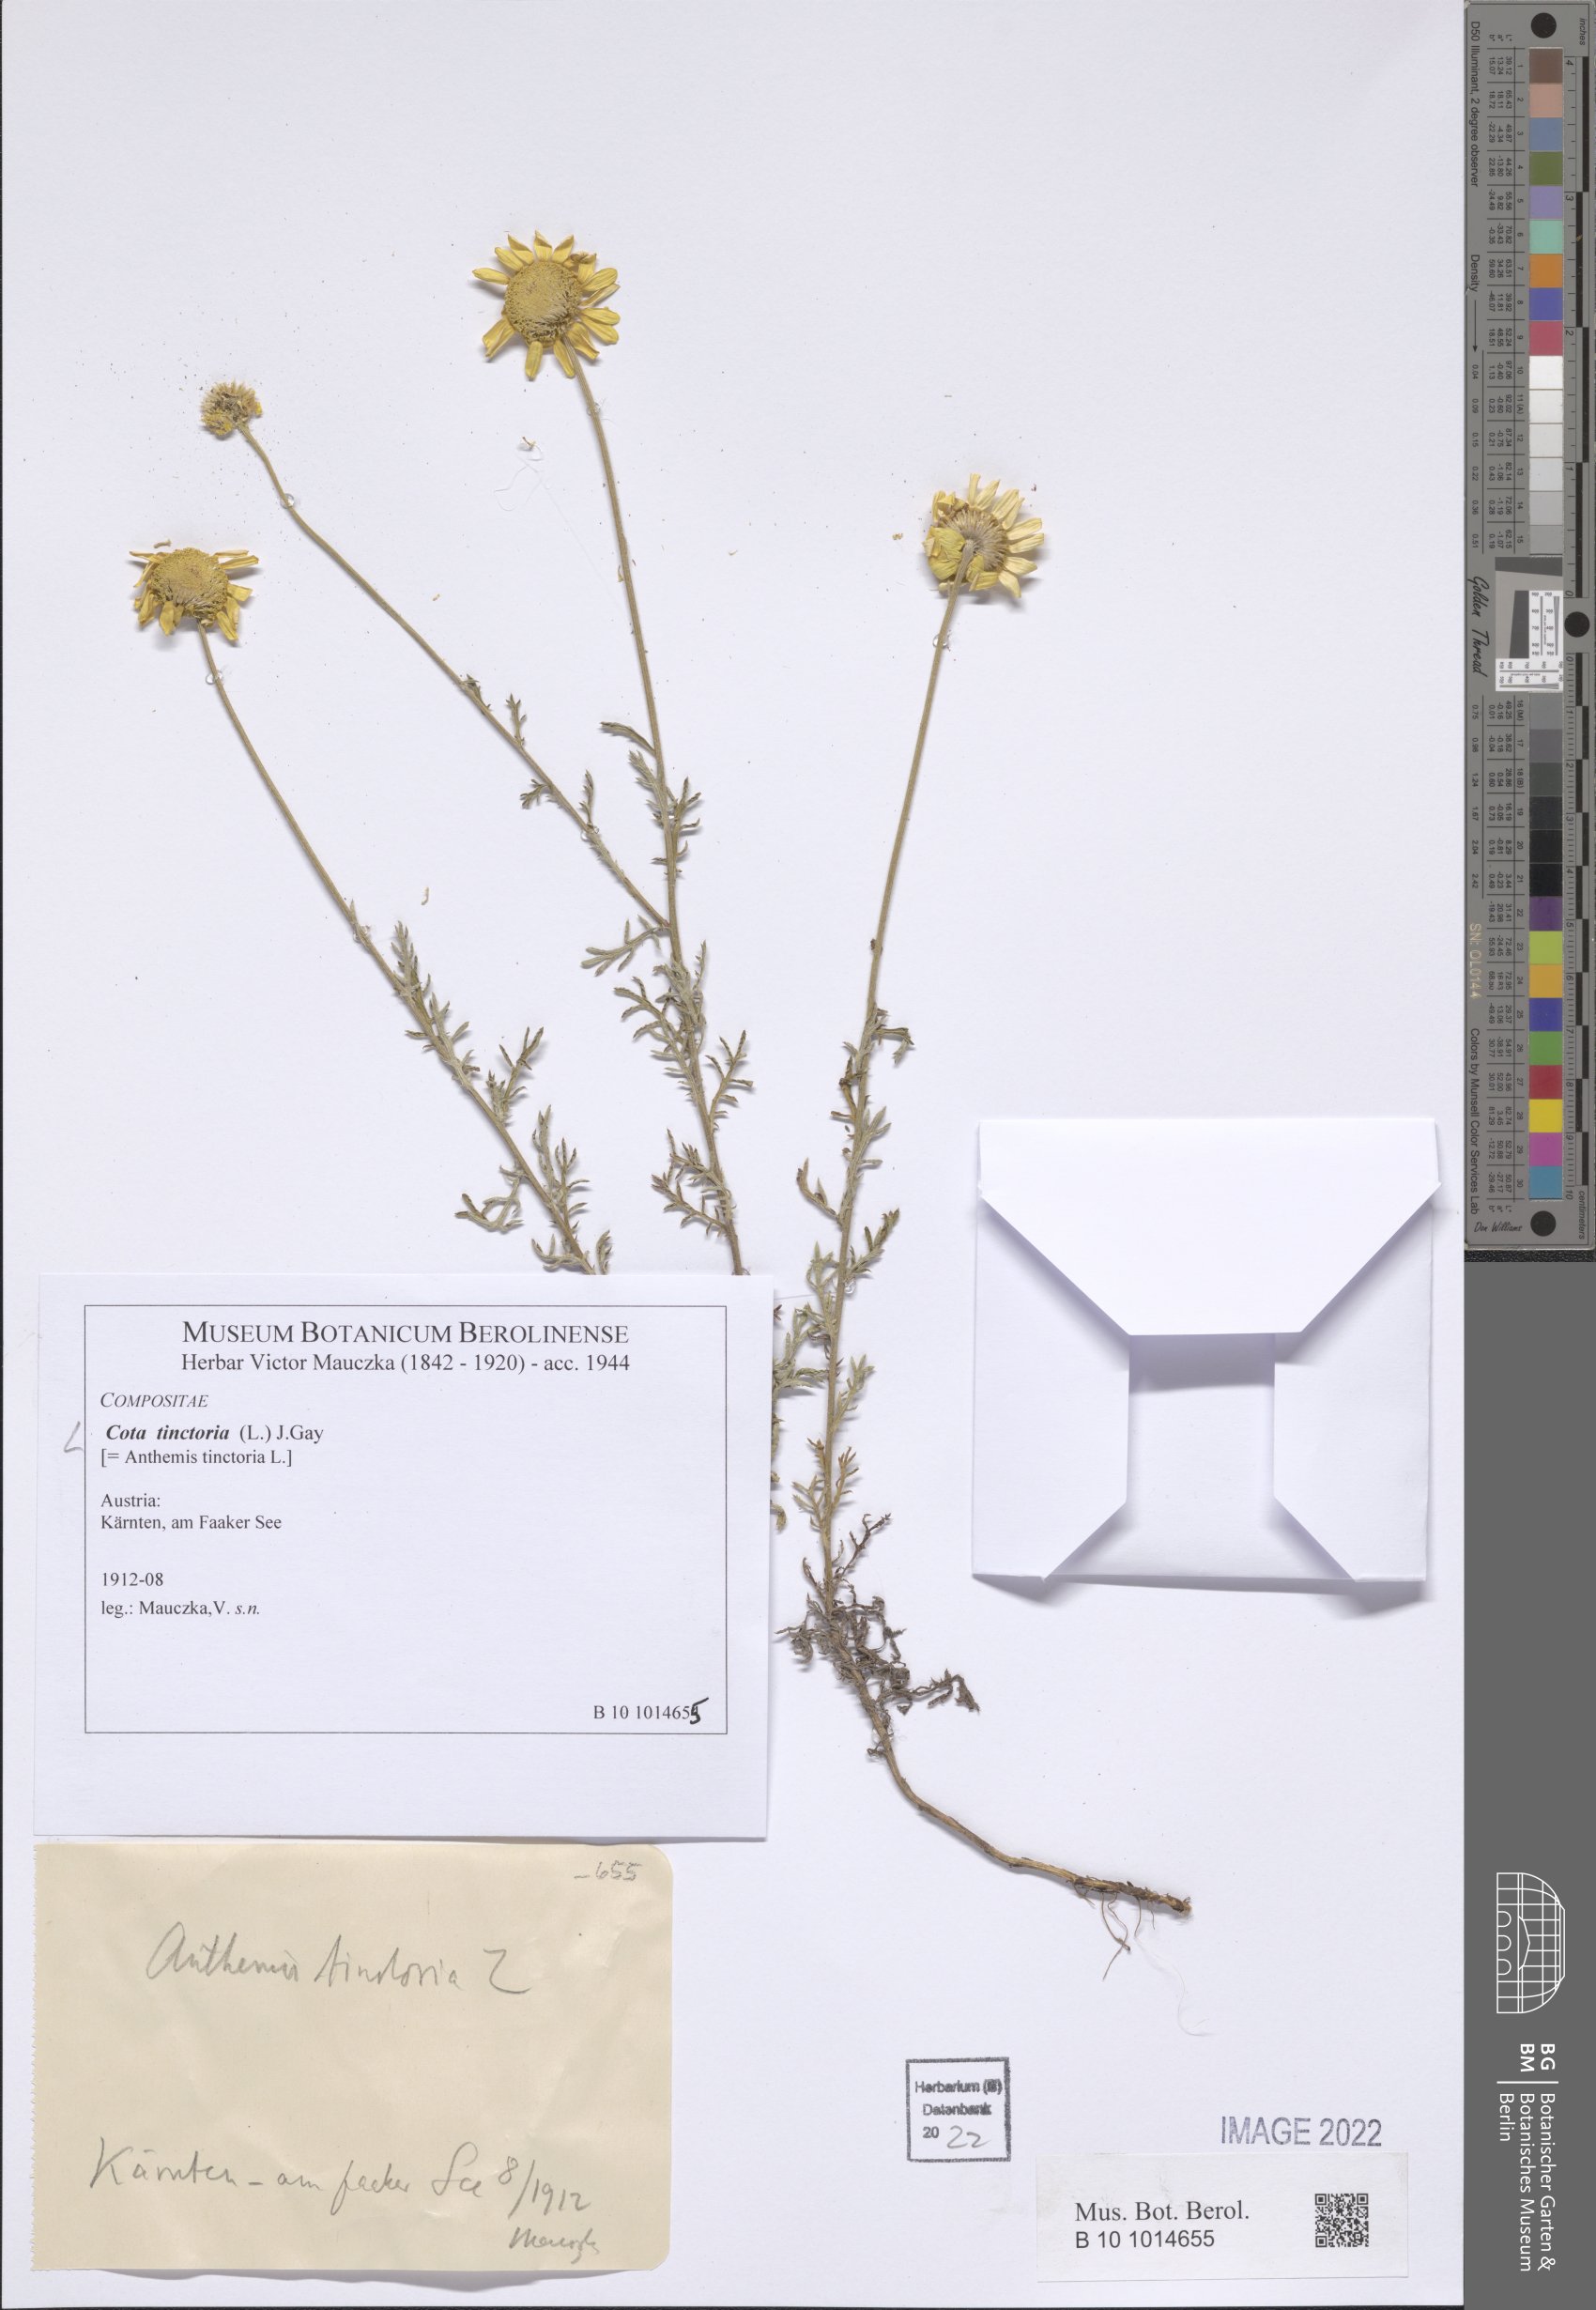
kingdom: Plantae
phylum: Tracheophyta
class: Magnoliopsida
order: Asterales
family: Asteraceae
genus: Cota
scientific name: Cota tinctoria
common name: Golden chamomile
